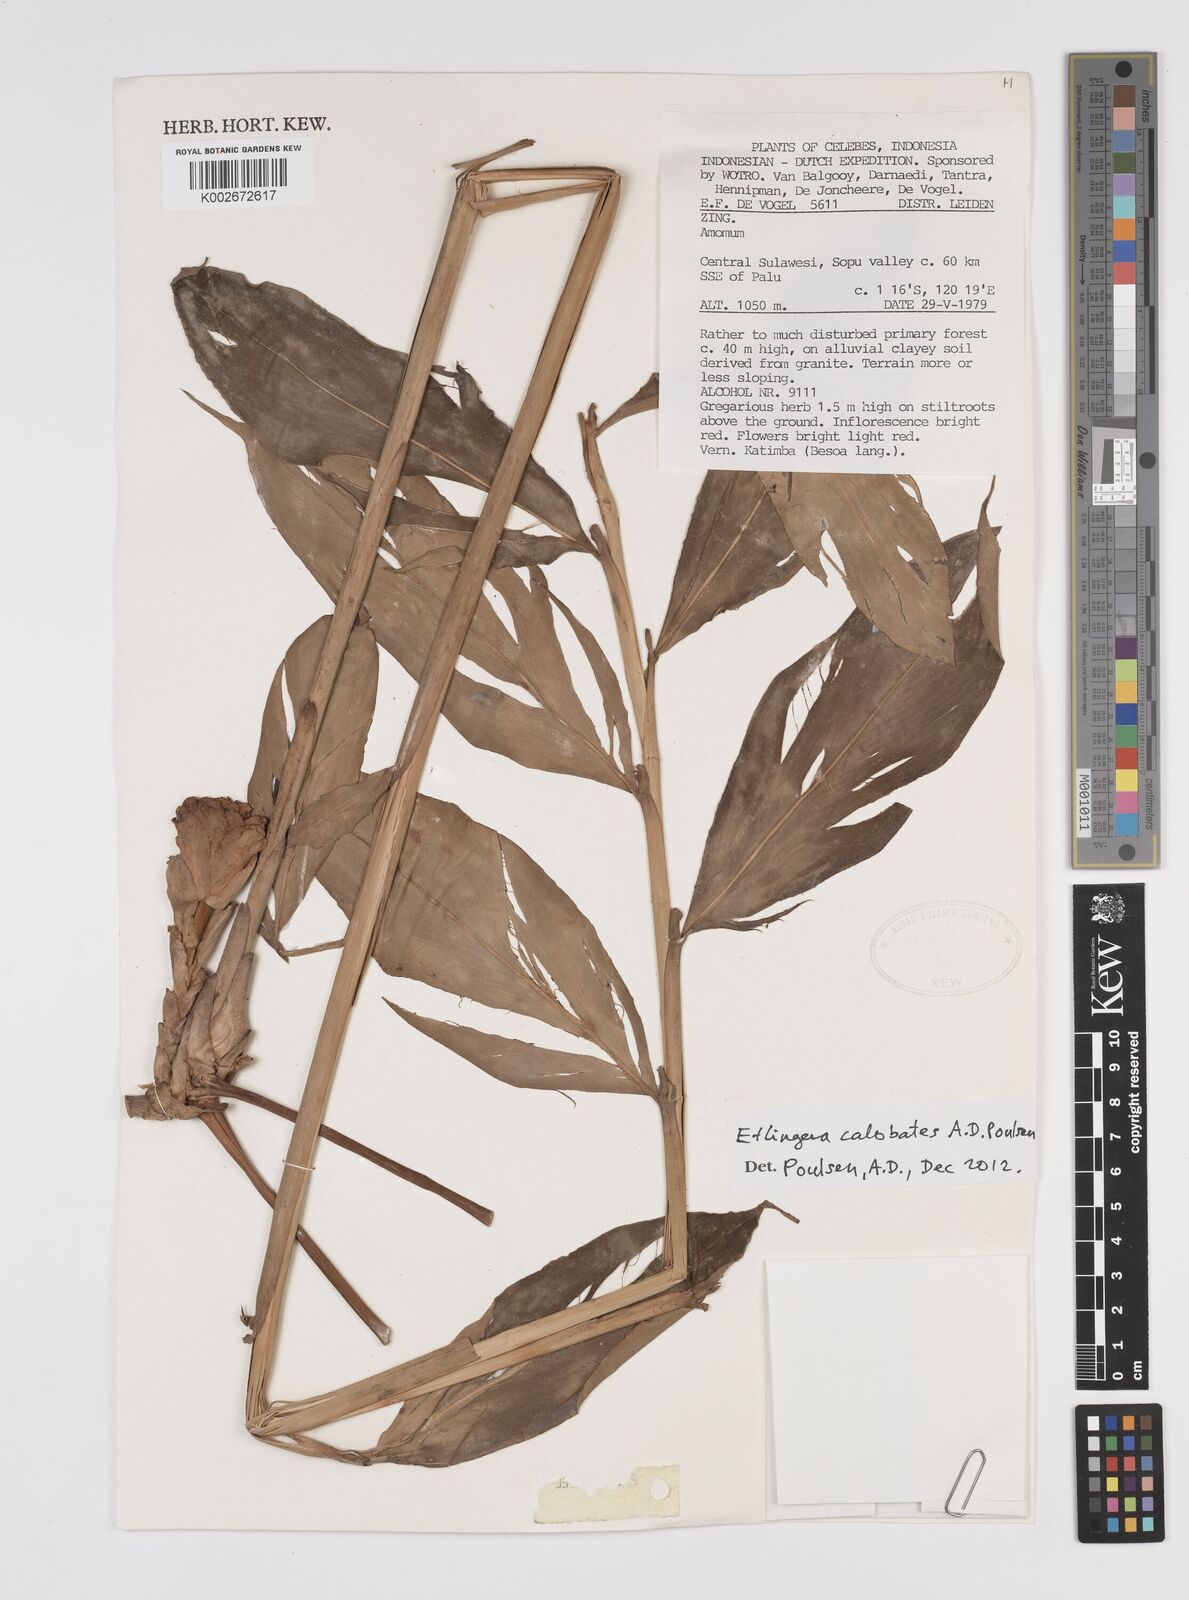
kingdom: Plantae
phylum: Tracheophyta
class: Liliopsida
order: Zingiberales
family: Zingiberaceae
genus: Etlingera
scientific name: Etlingera calobates
